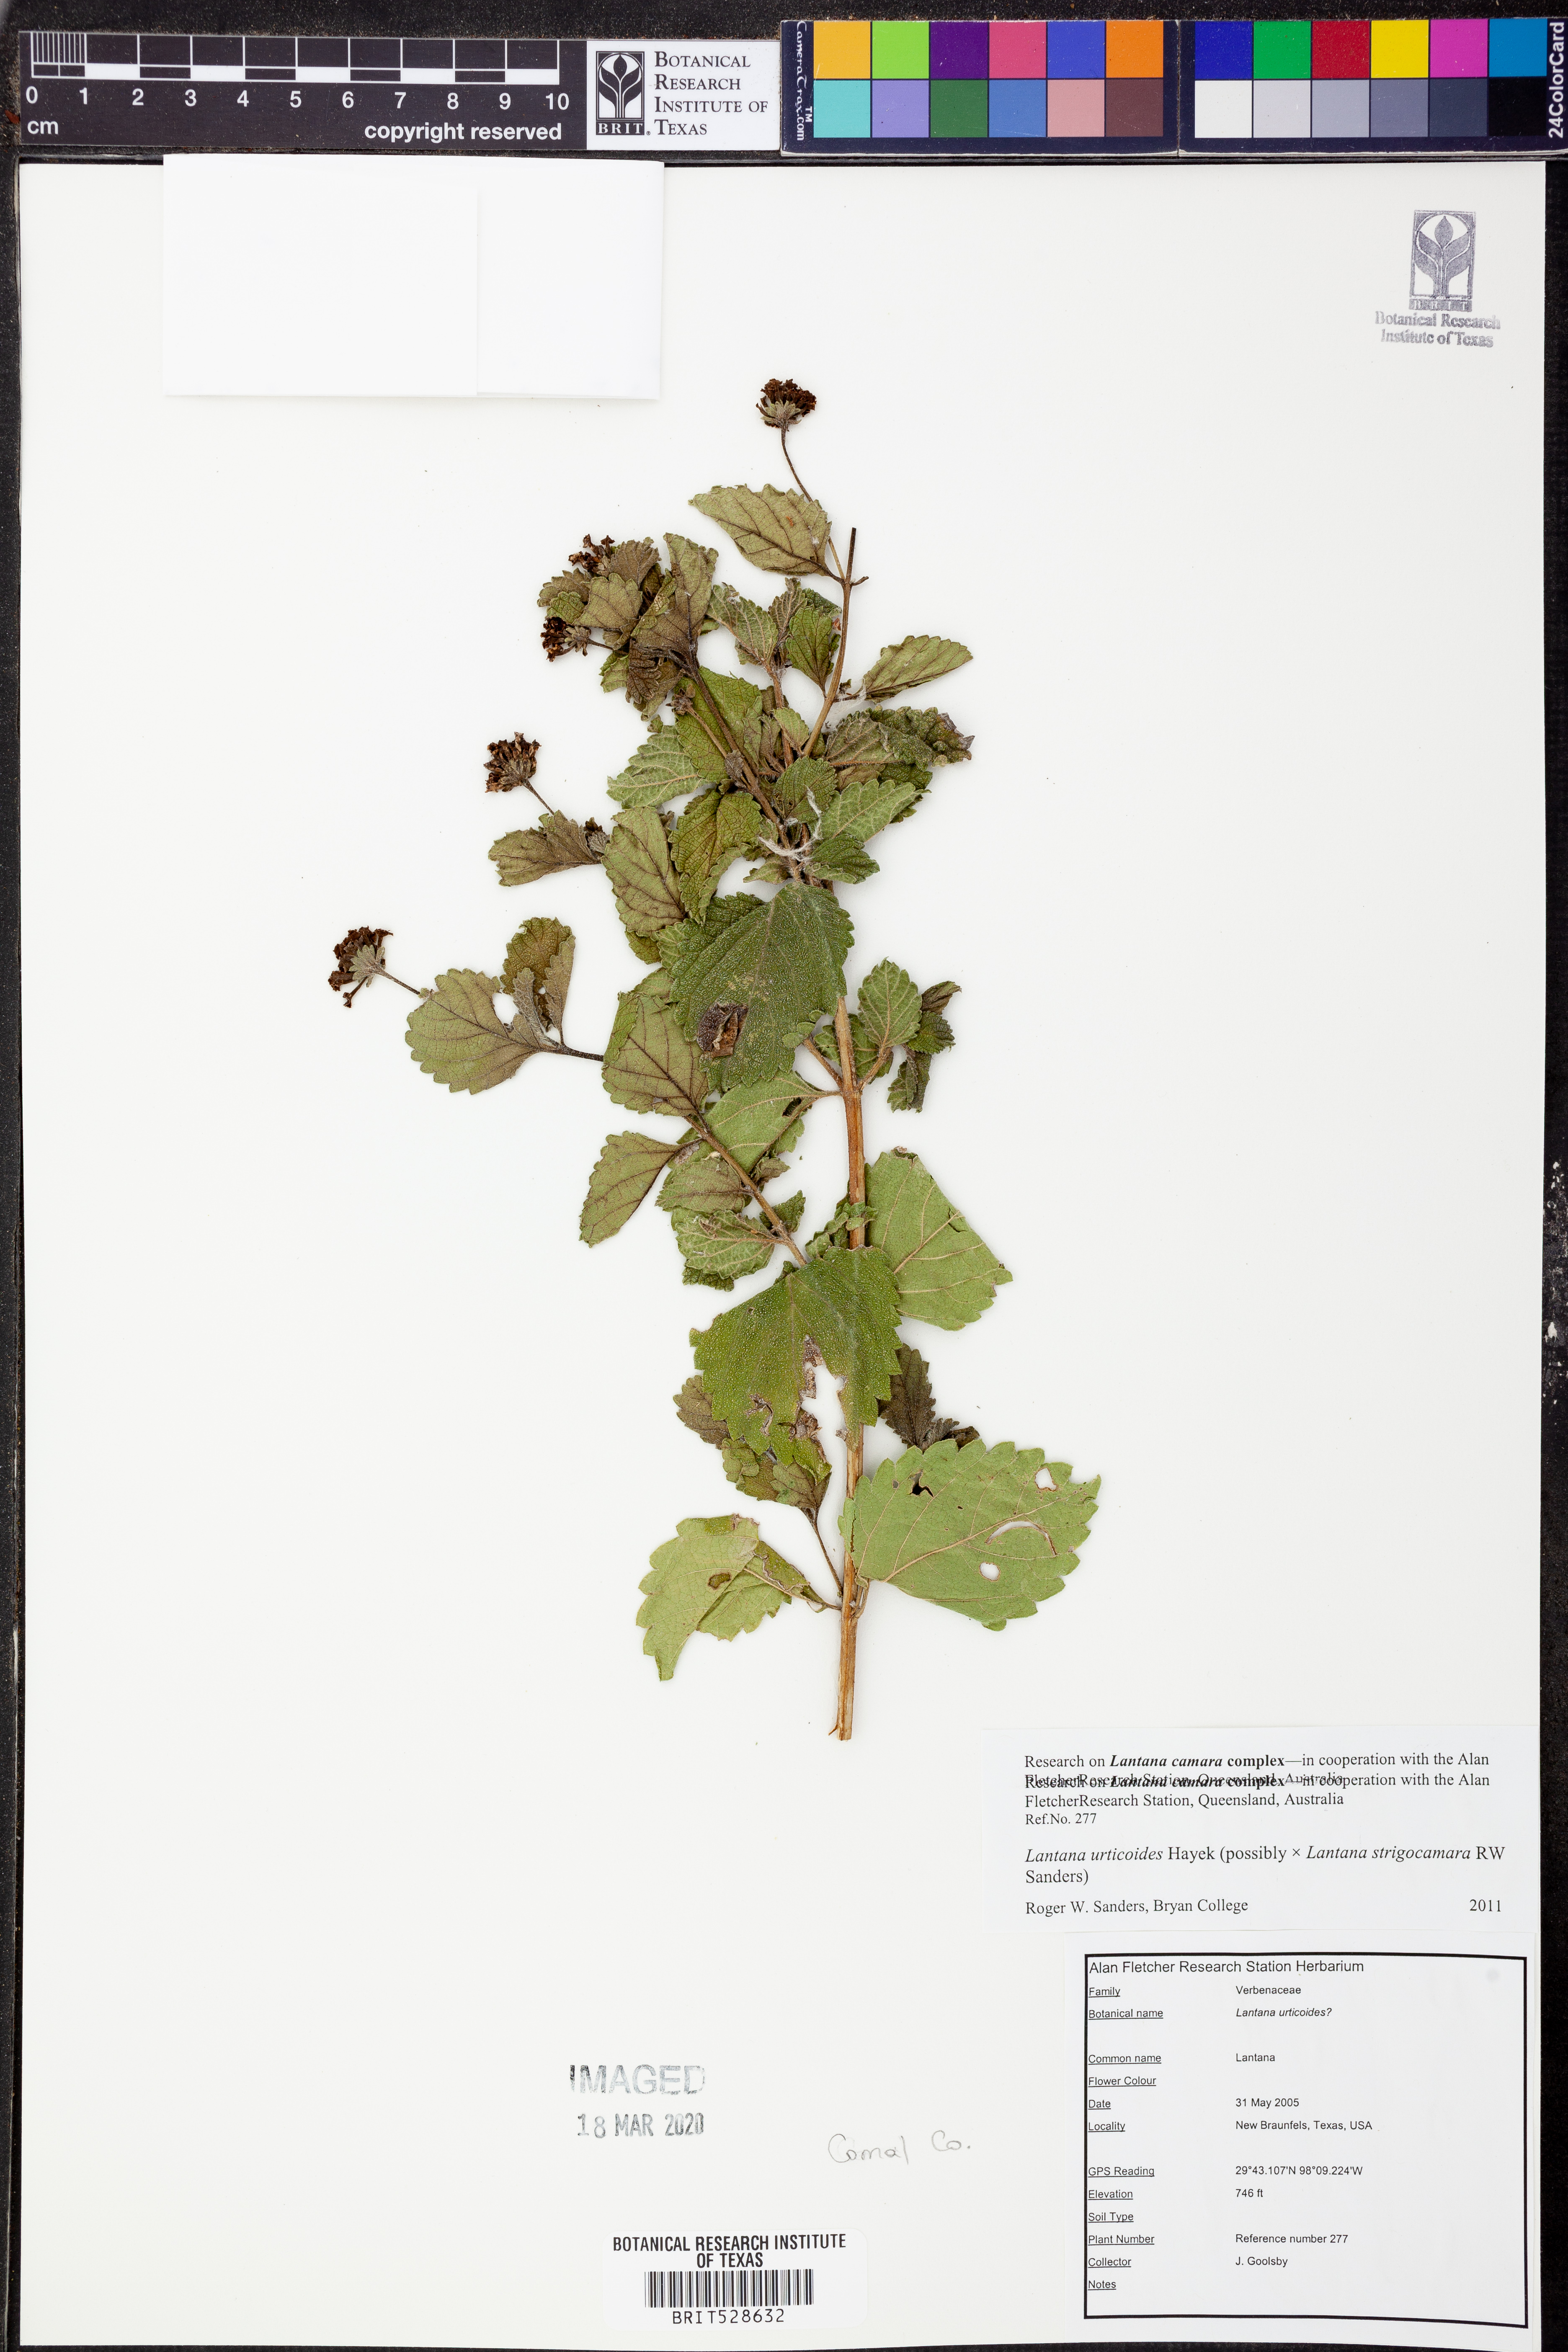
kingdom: Plantae
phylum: Tracheophyta
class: Magnoliopsida
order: Lamiales
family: Verbenaceae
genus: Lantana
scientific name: Lantana urticoides
